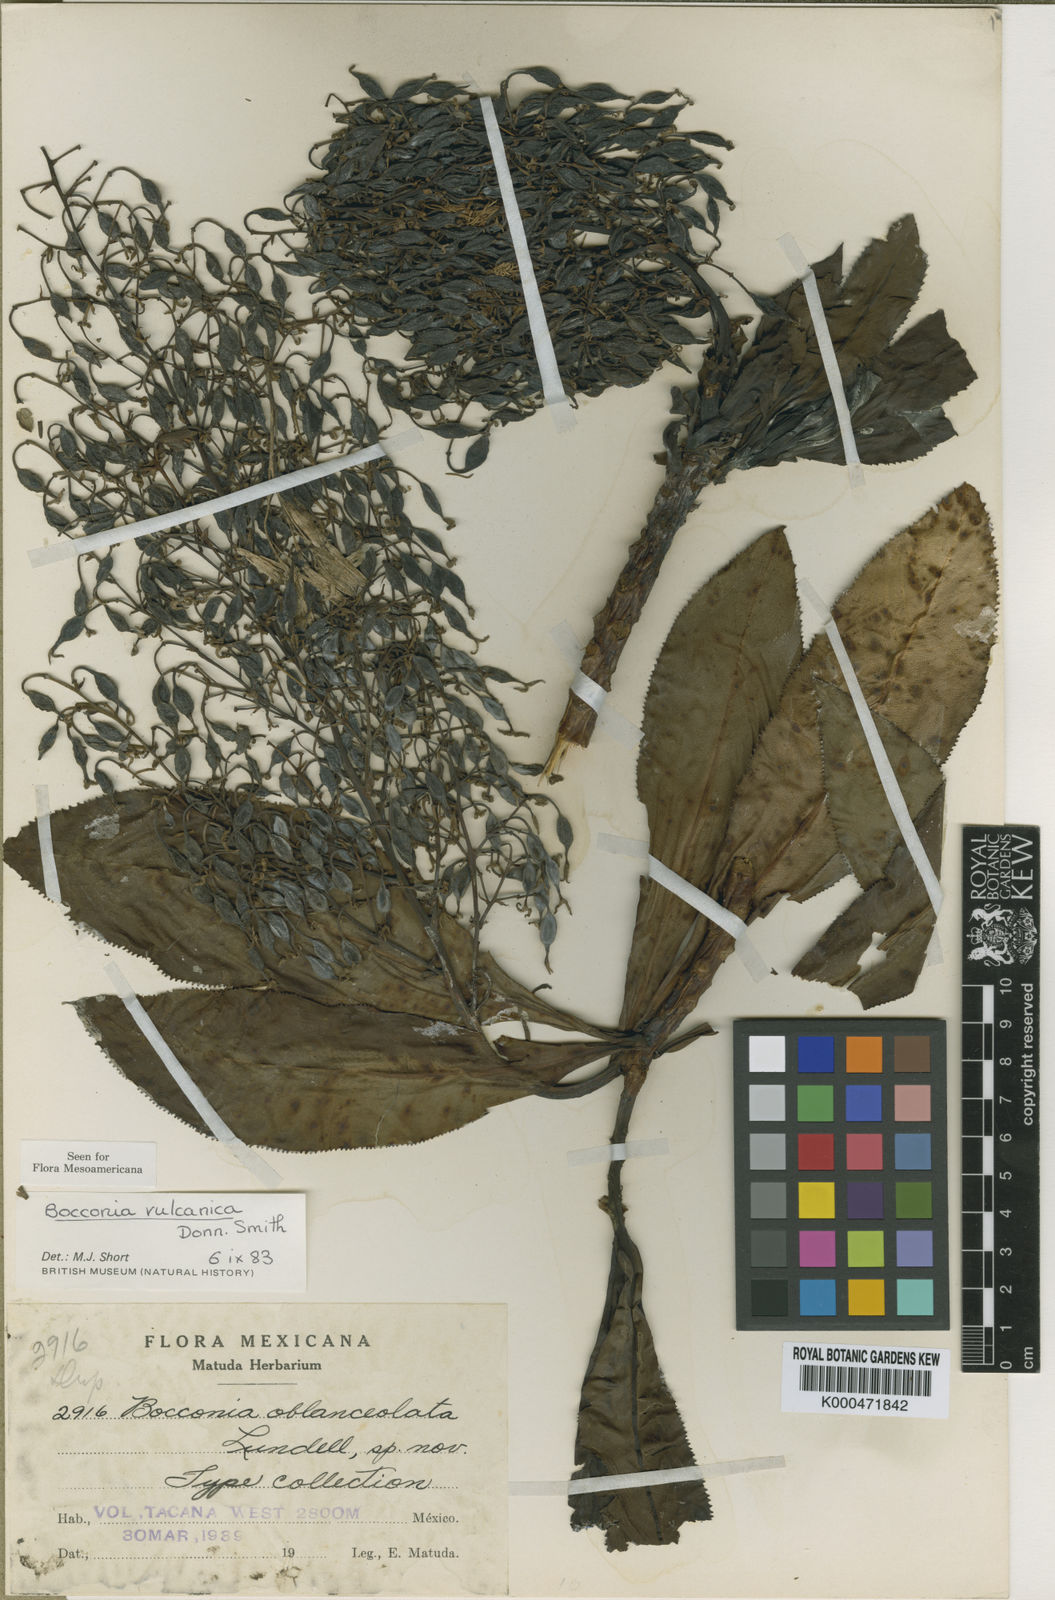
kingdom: Plantae
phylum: Tracheophyta
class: Magnoliopsida
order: Ranunculales
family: Papaveraceae
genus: Bocconia
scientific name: Bocconia vulcanica
